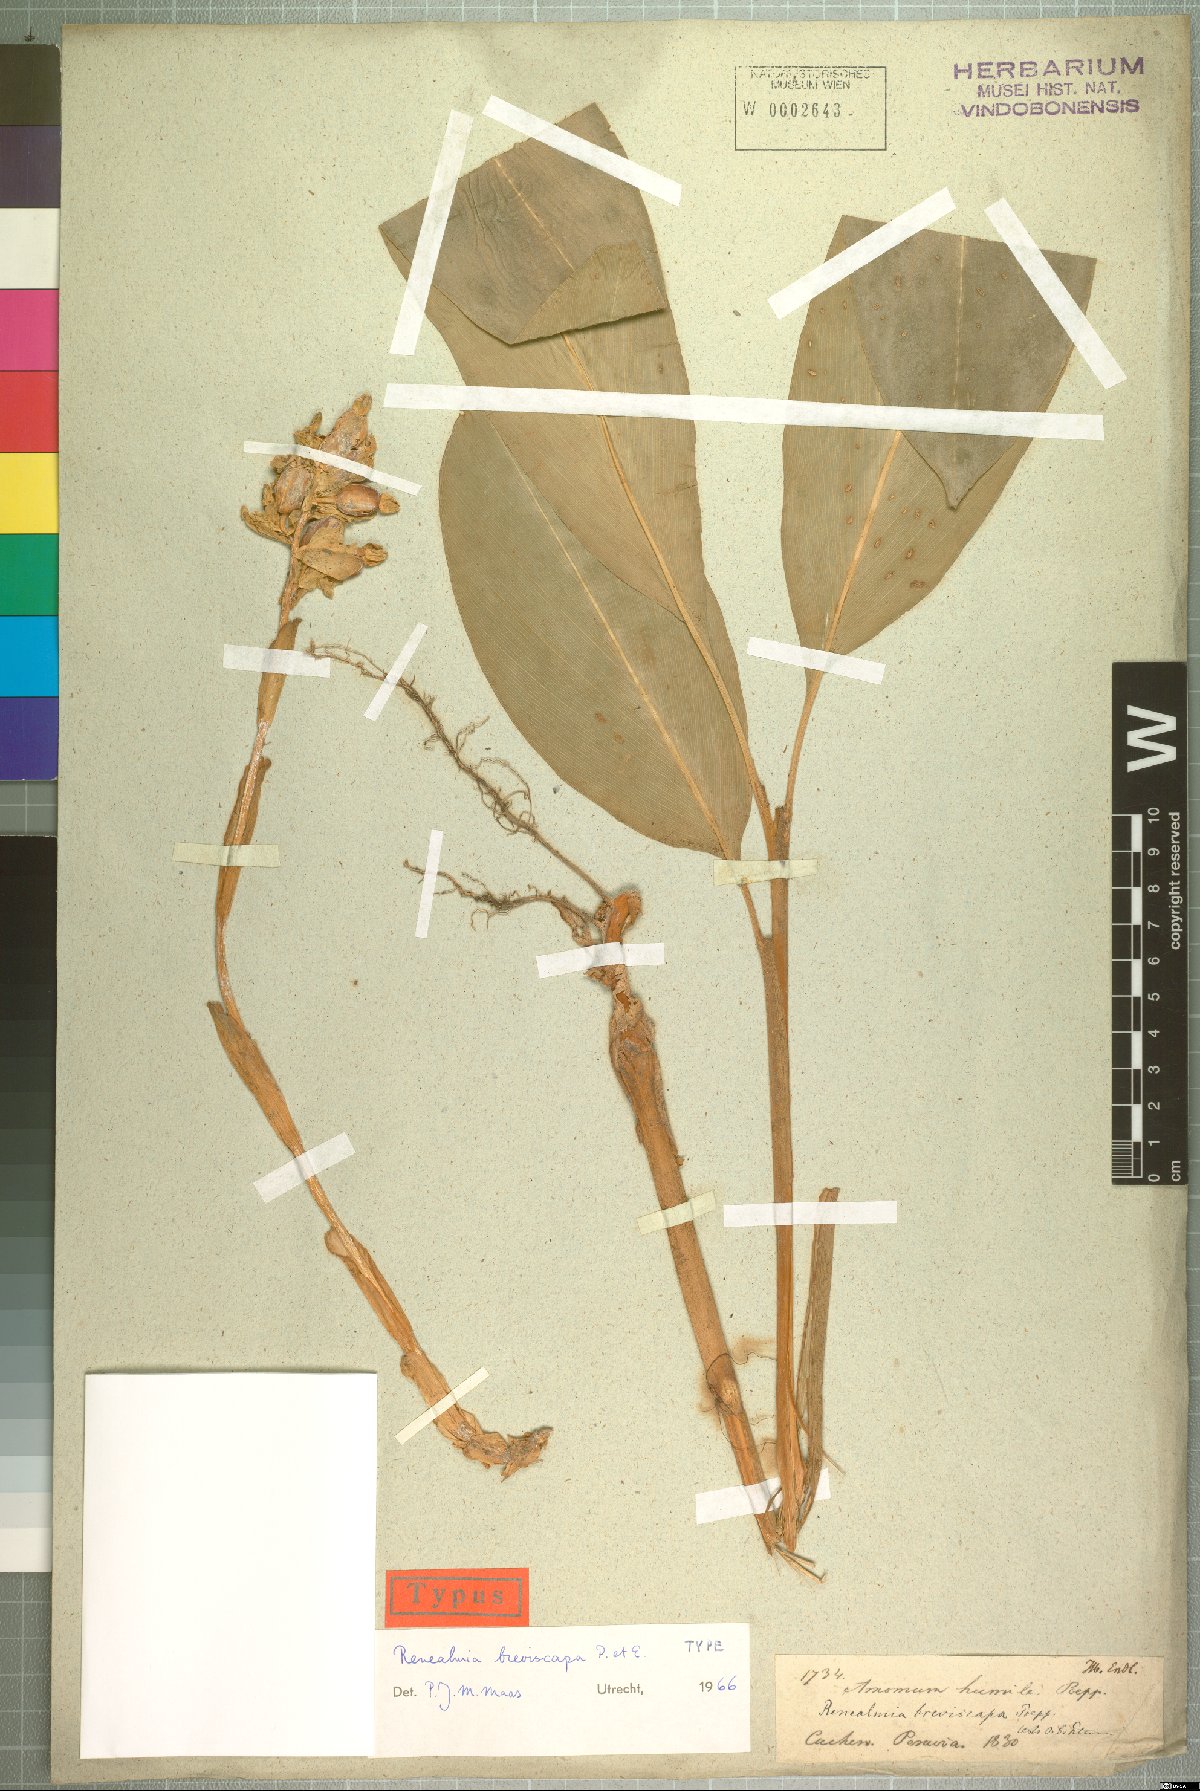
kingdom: Plantae
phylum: Tracheophyta
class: Liliopsida
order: Zingiberales
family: Zingiberaceae
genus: Renealmia
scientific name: Renealmia breviscapa
